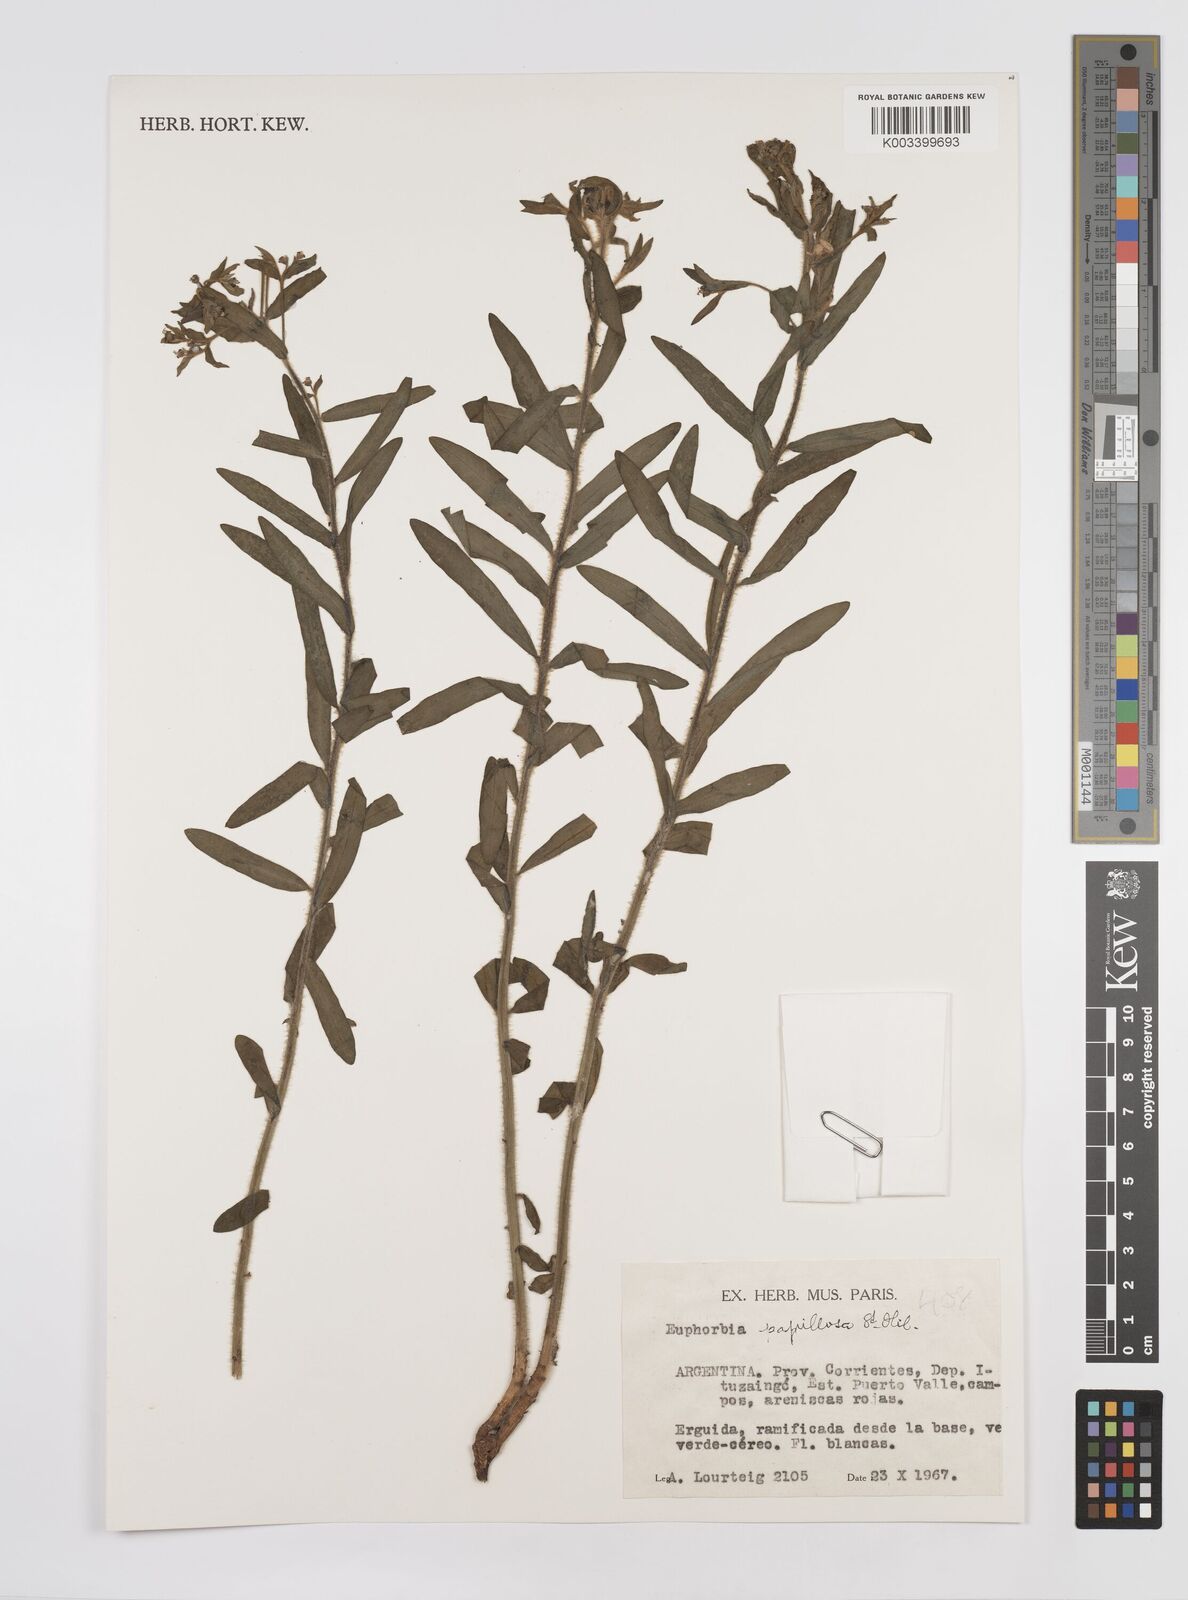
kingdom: Plantae
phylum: Tracheophyta
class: Magnoliopsida
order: Malpighiales
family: Euphorbiaceae
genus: Euphorbia
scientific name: Euphorbia
